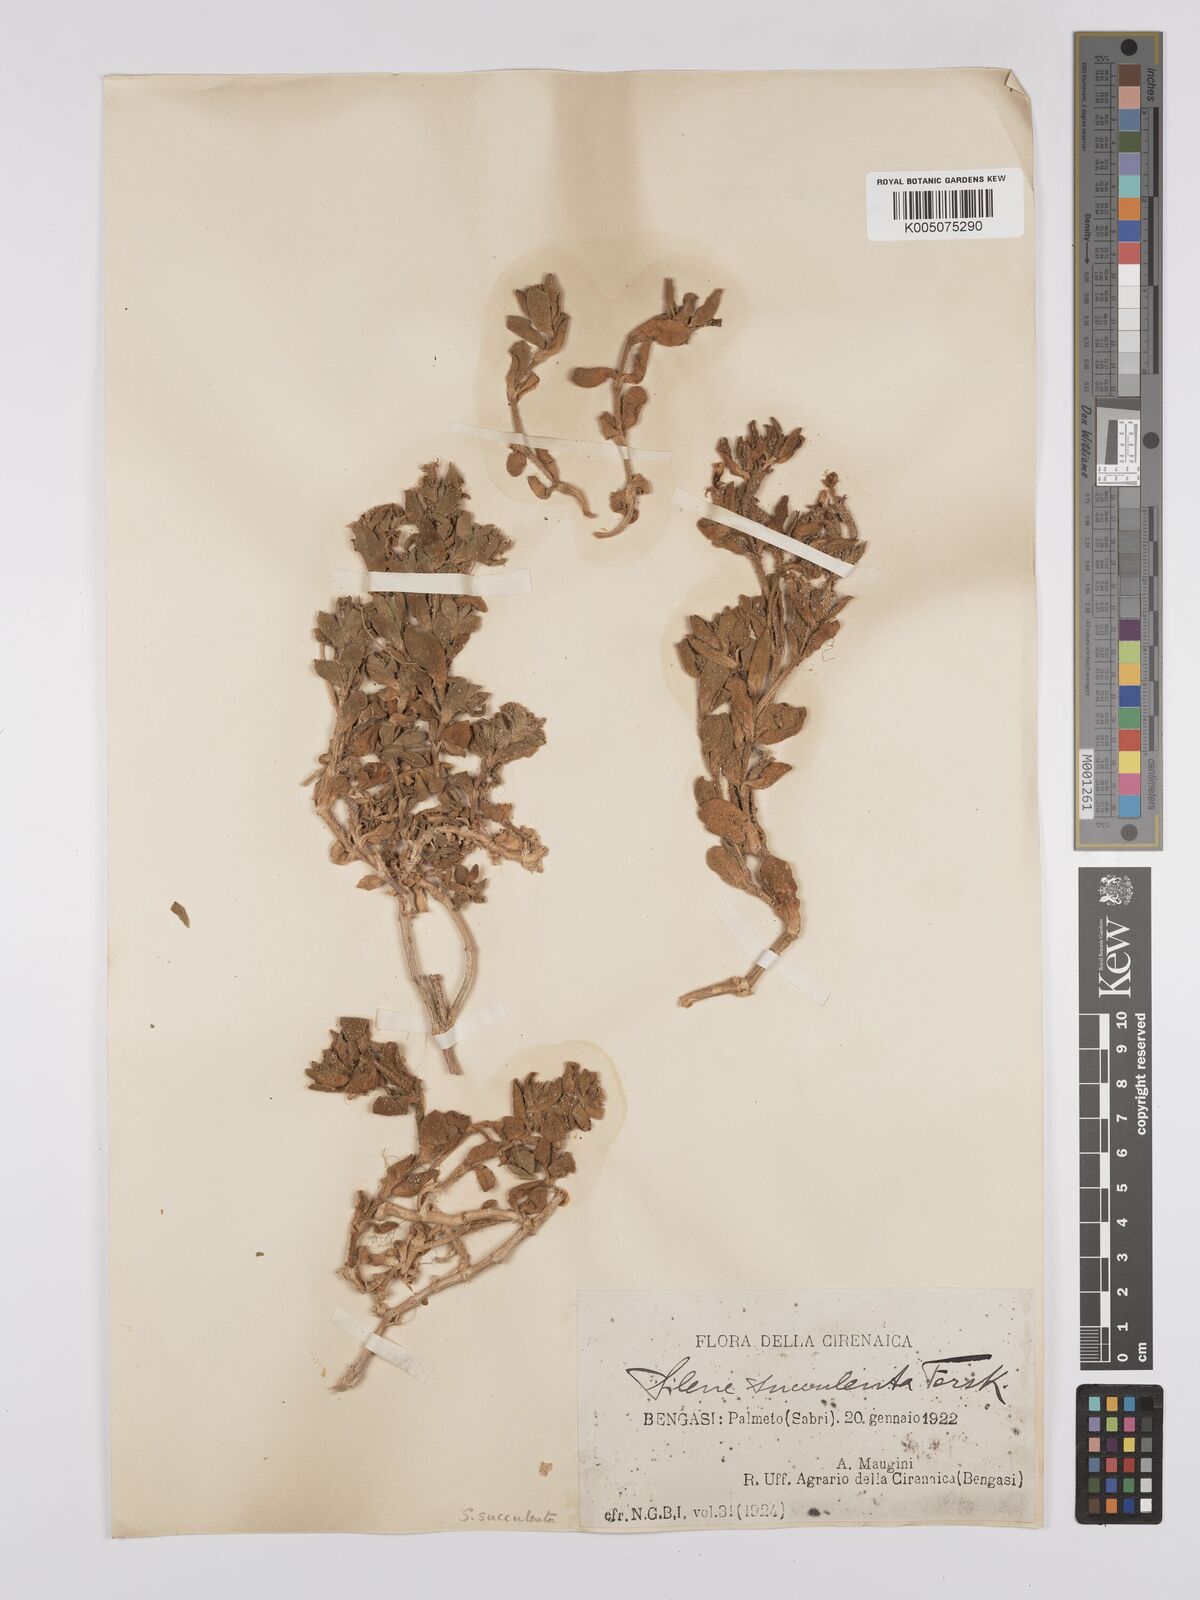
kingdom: Plantae
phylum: Tracheophyta
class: Magnoliopsida
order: Caryophyllales
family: Caryophyllaceae
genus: Silene
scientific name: Silene succulenta
